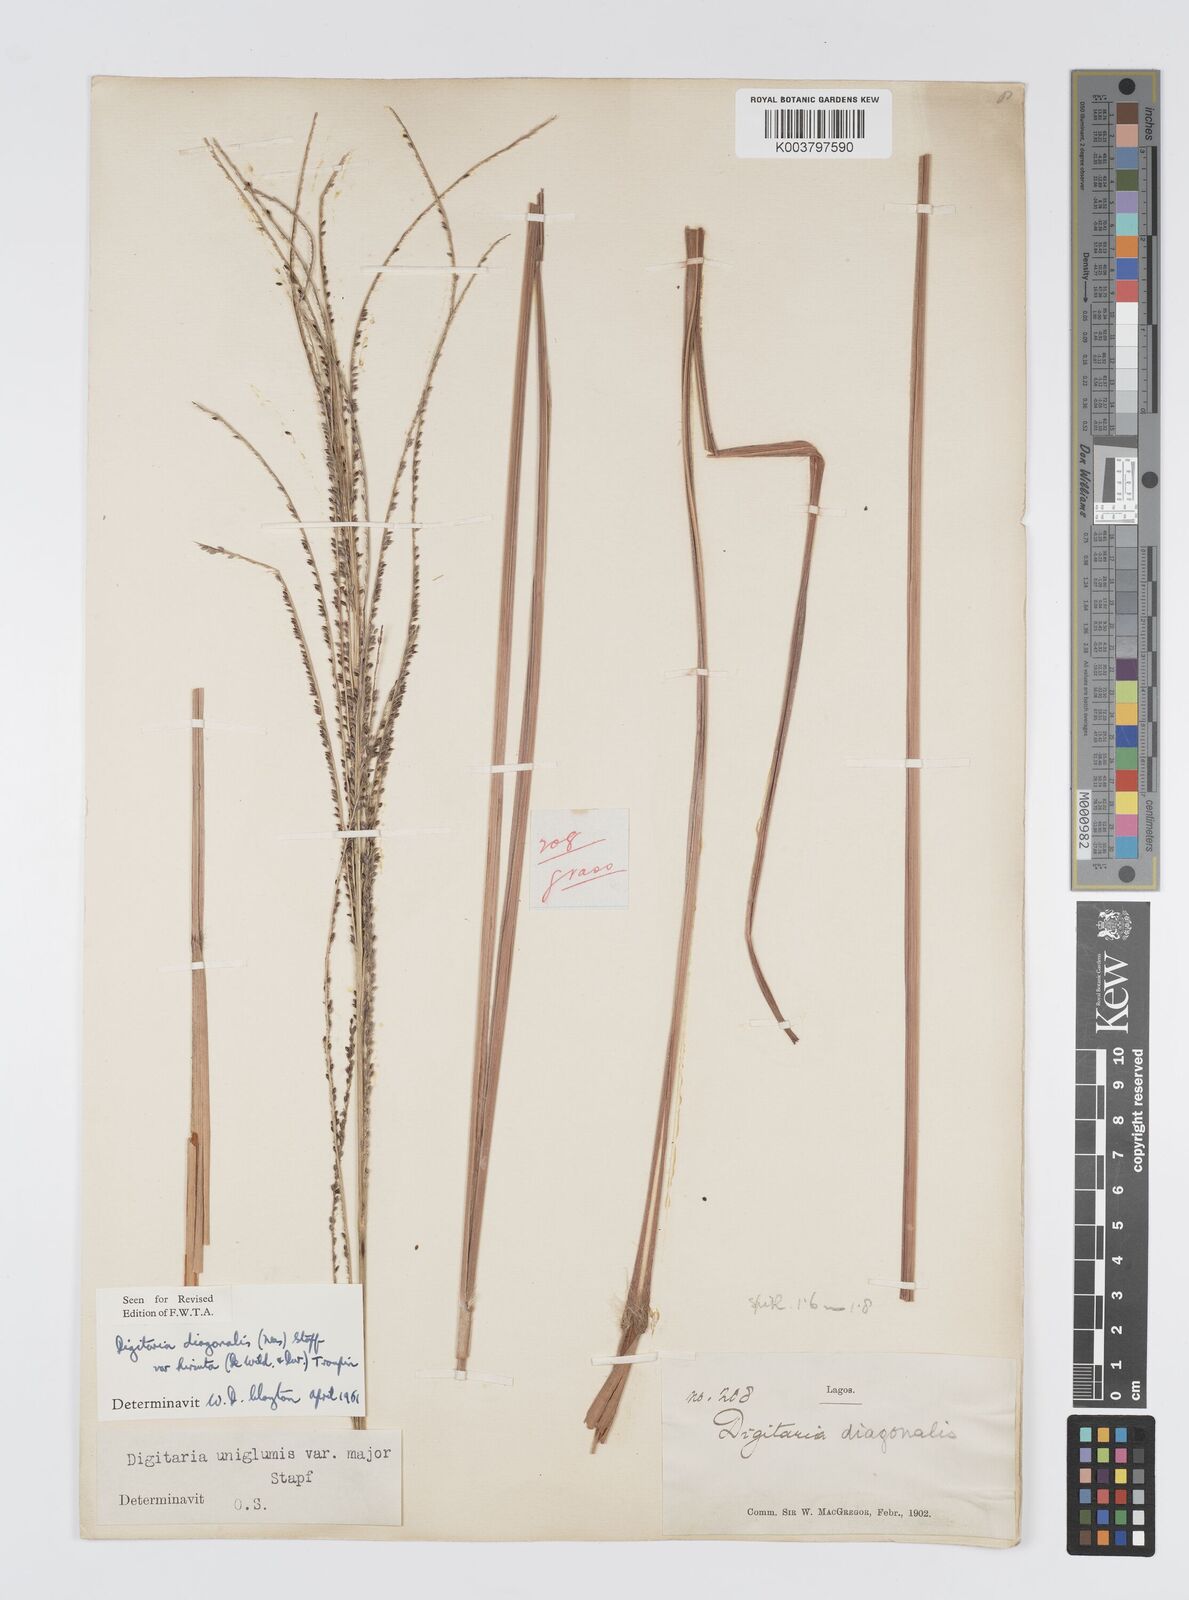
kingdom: Plantae
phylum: Tracheophyta
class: Liliopsida
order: Poales
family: Poaceae
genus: Digitaria
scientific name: Digitaria diagonalis
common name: Brown-seed finger grass
